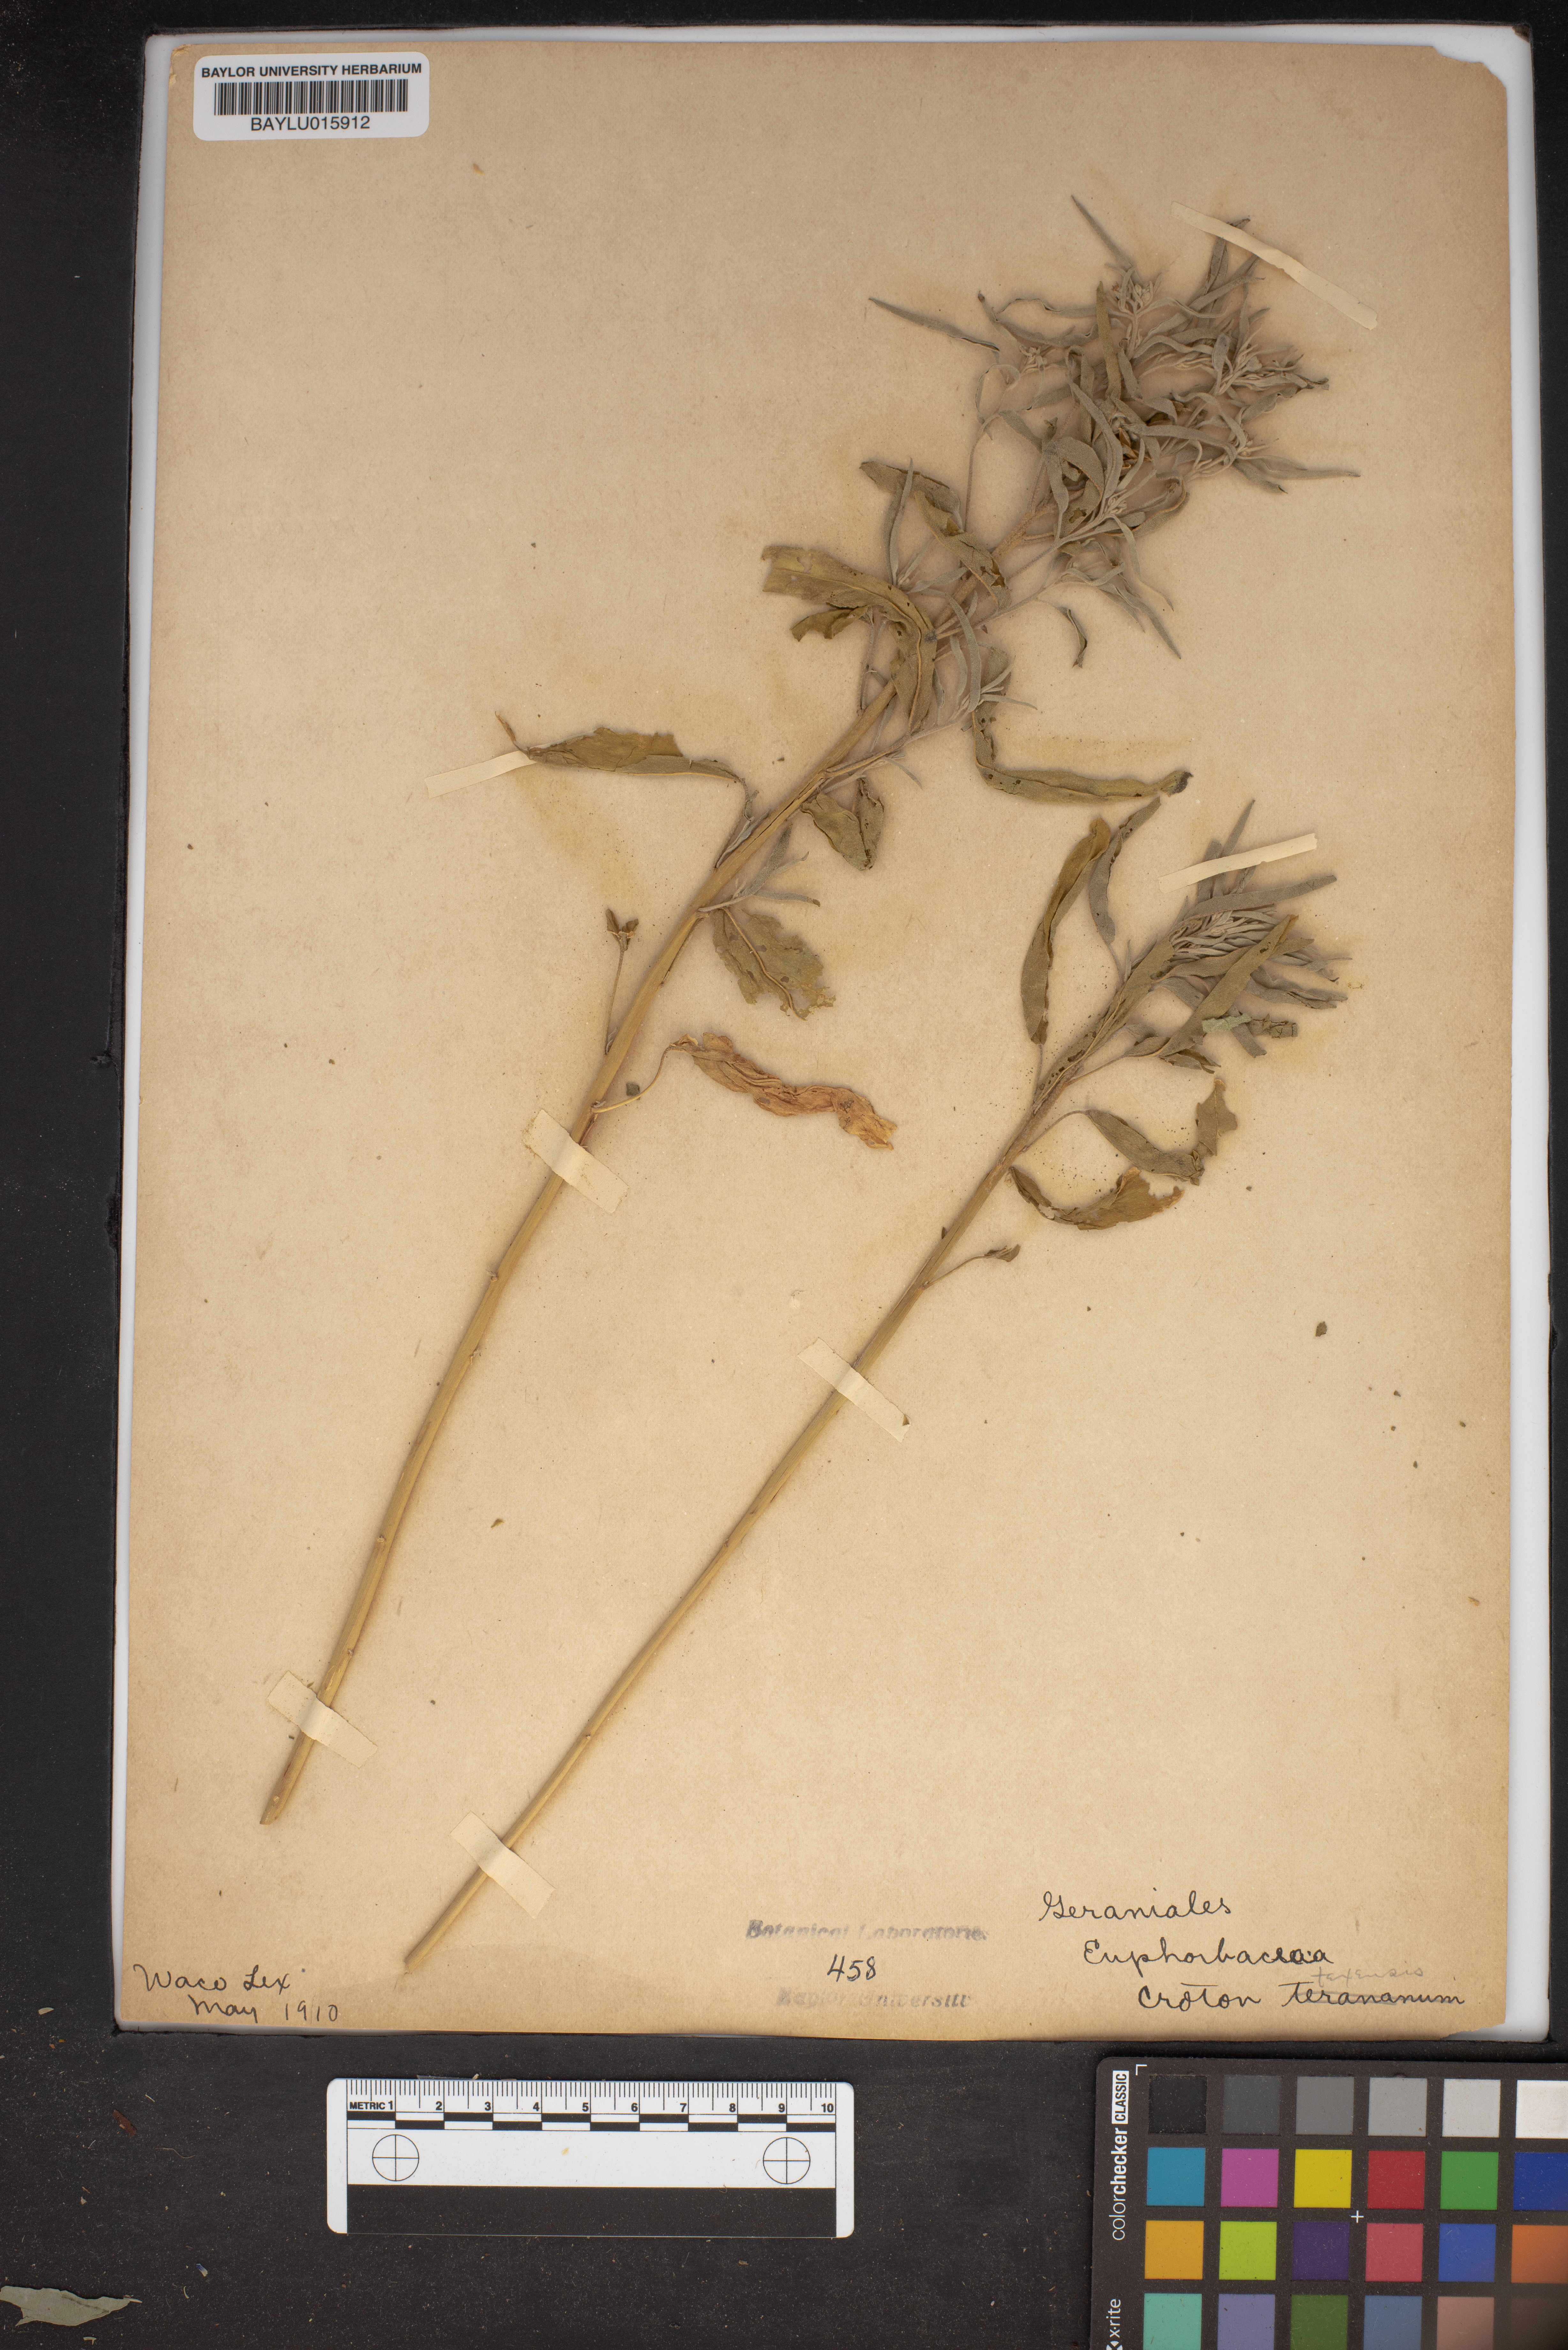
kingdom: Plantae
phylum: Tracheophyta
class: Magnoliopsida
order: Malpighiales
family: Euphorbiaceae
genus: Croton
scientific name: Croton texensis
